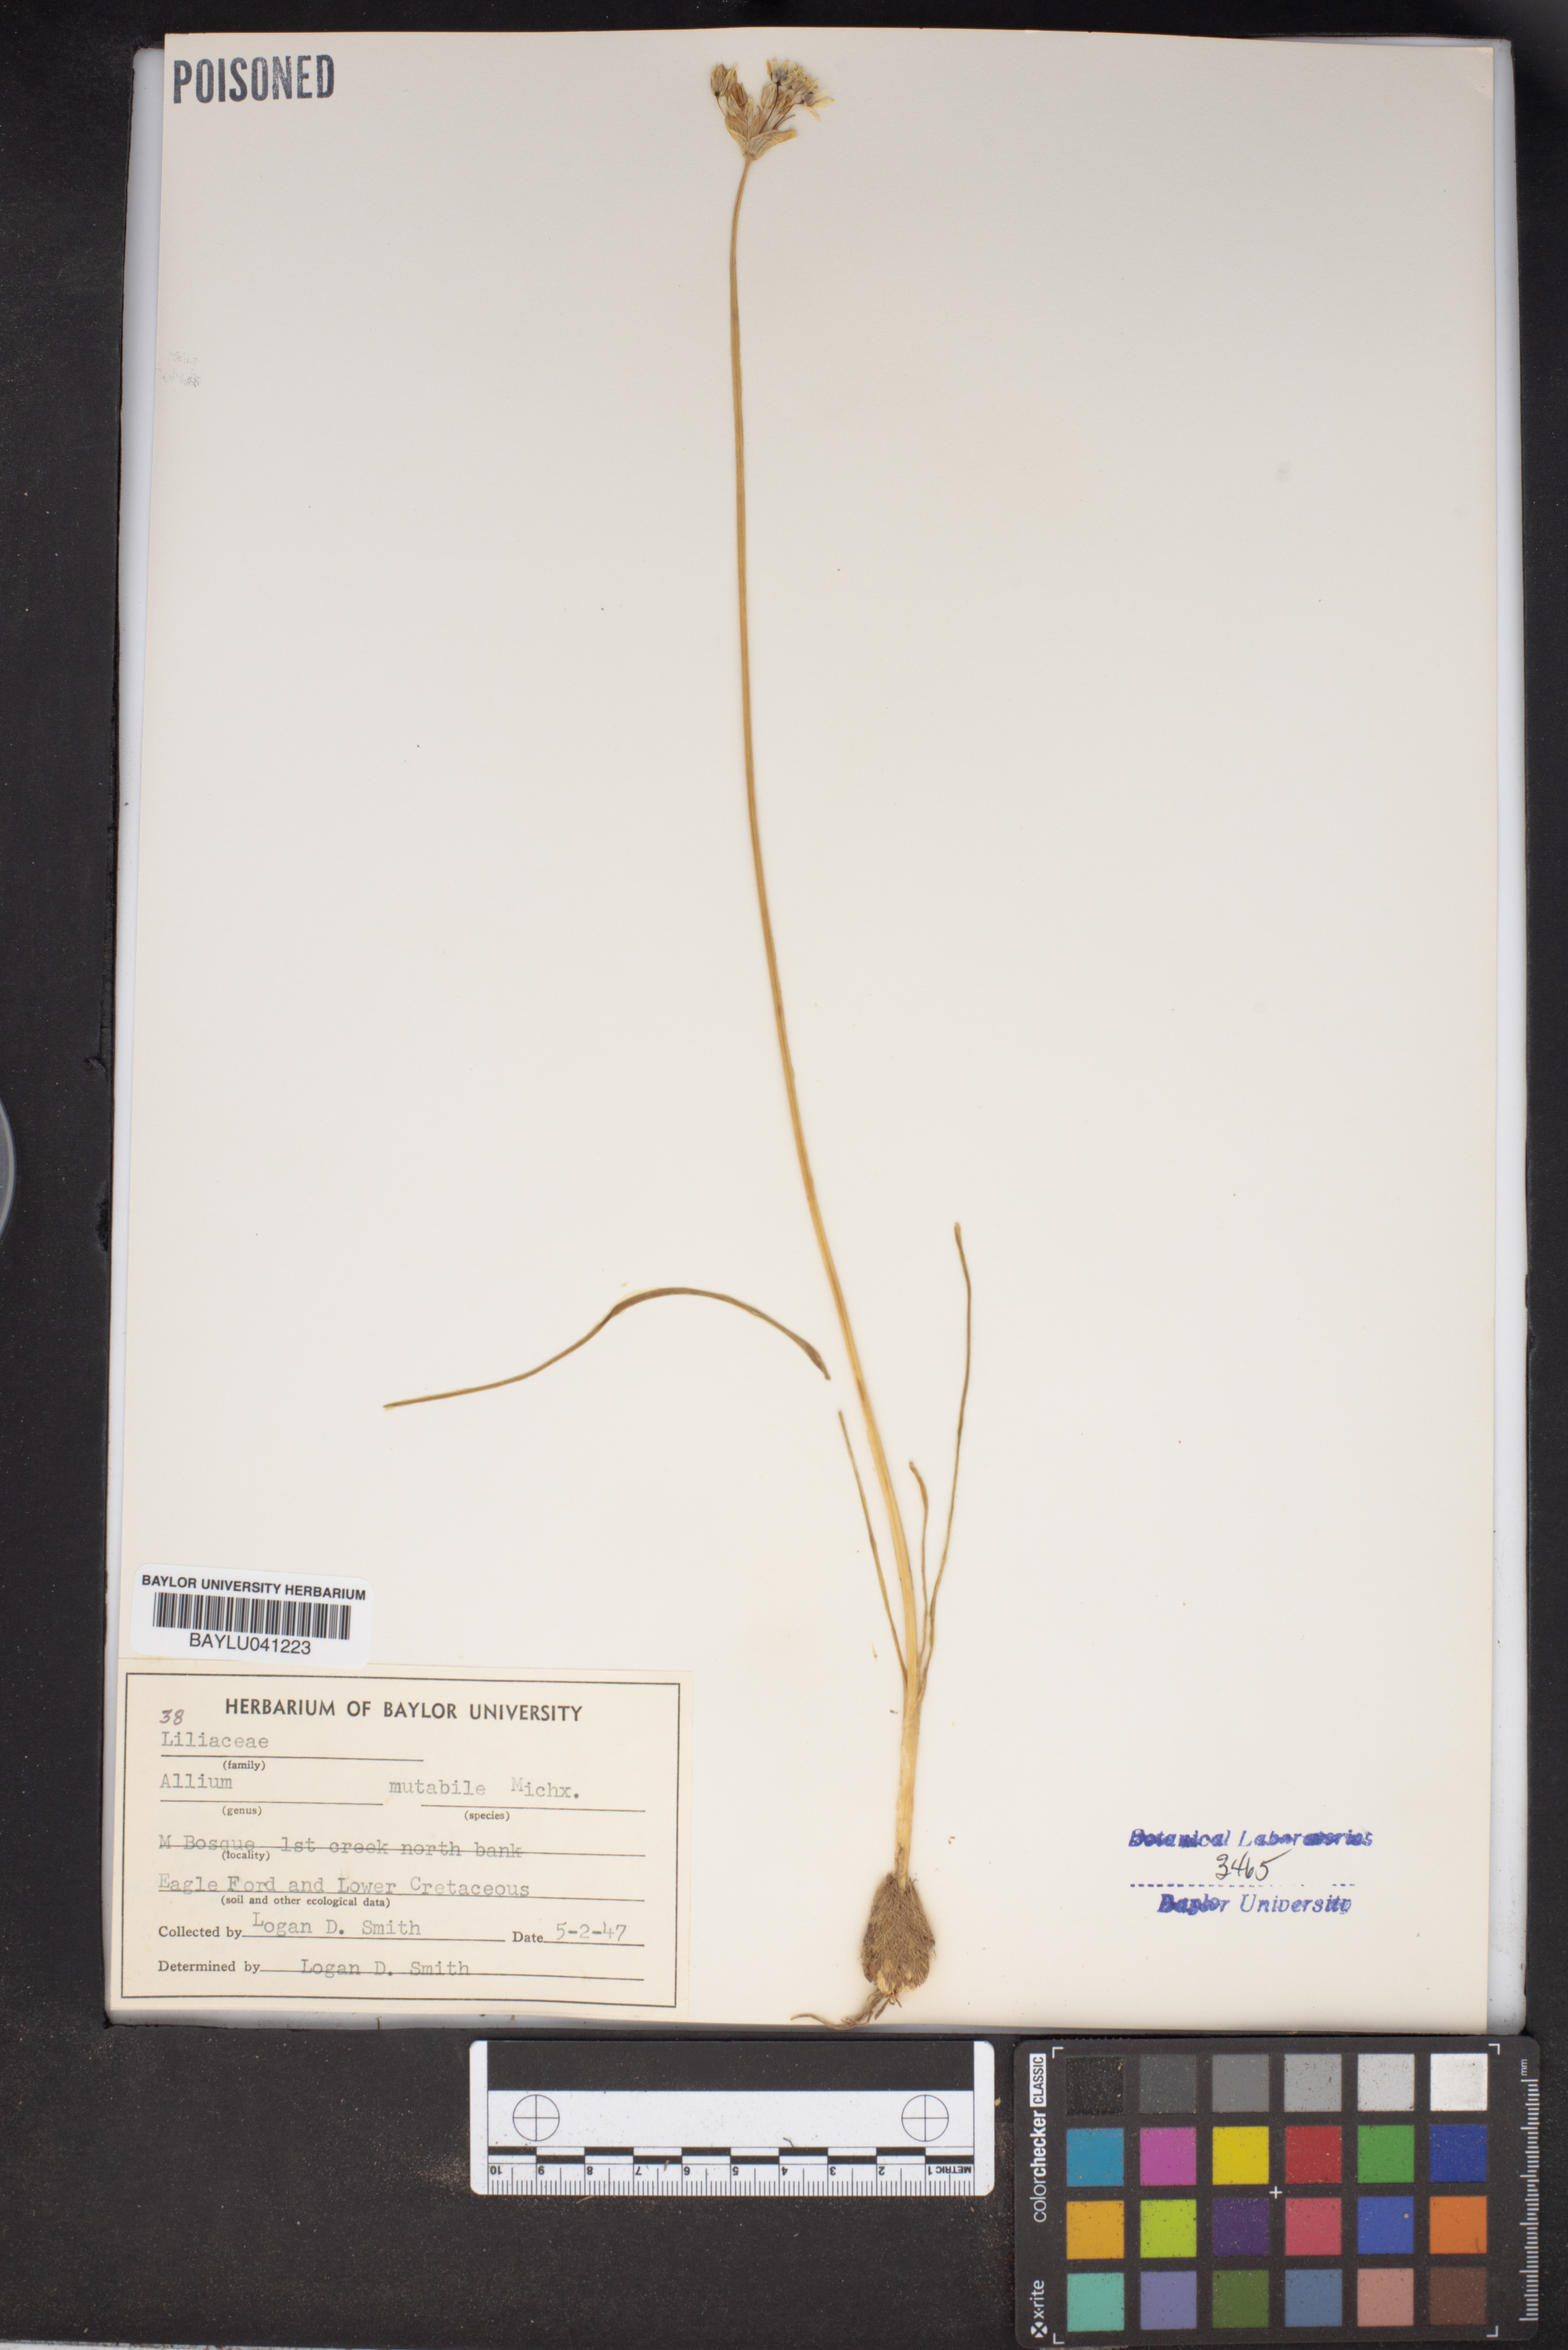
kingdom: Plantae
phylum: Tracheophyta
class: Liliopsida
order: Asparagales
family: Amaryllidaceae
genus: Allium
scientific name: Allium canadense
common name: Meadow garlic
